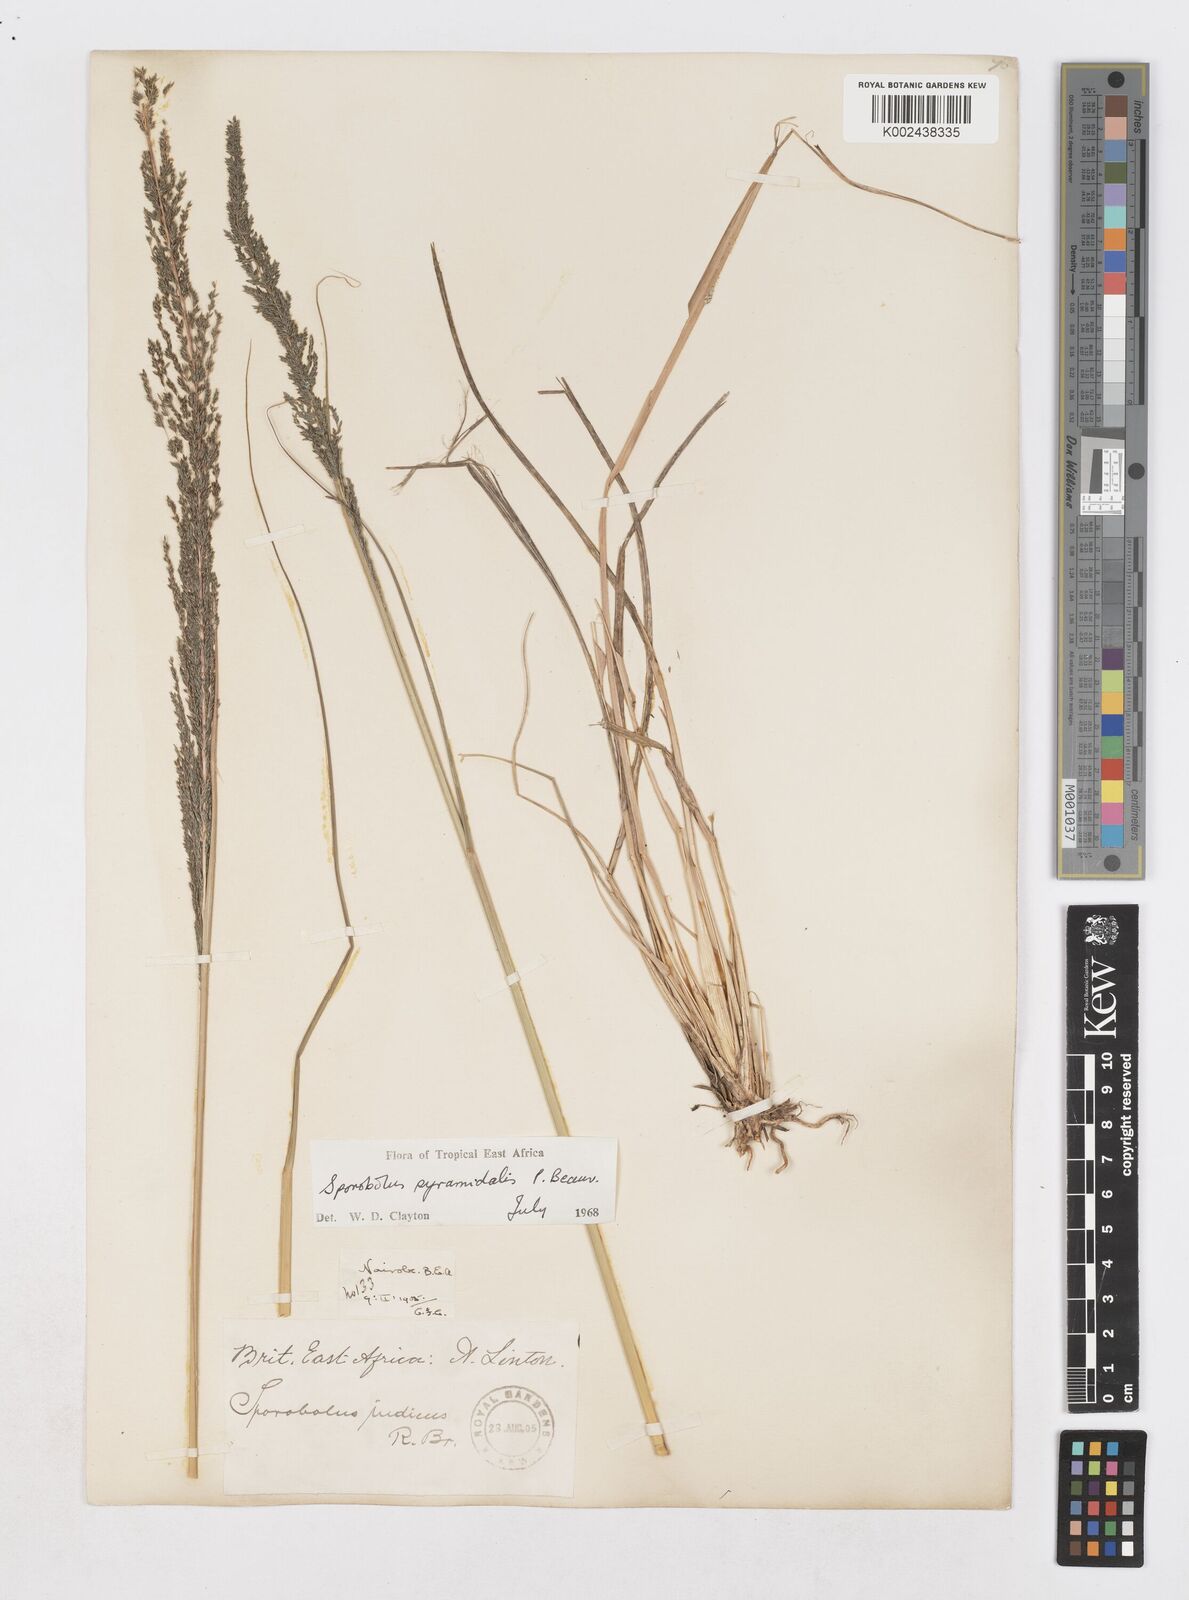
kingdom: Plantae
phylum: Tracheophyta
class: Liliopsida
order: Poales
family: Poaceae
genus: Sporobolus
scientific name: Sporobolus pyramidalis
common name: West indian dropseed
